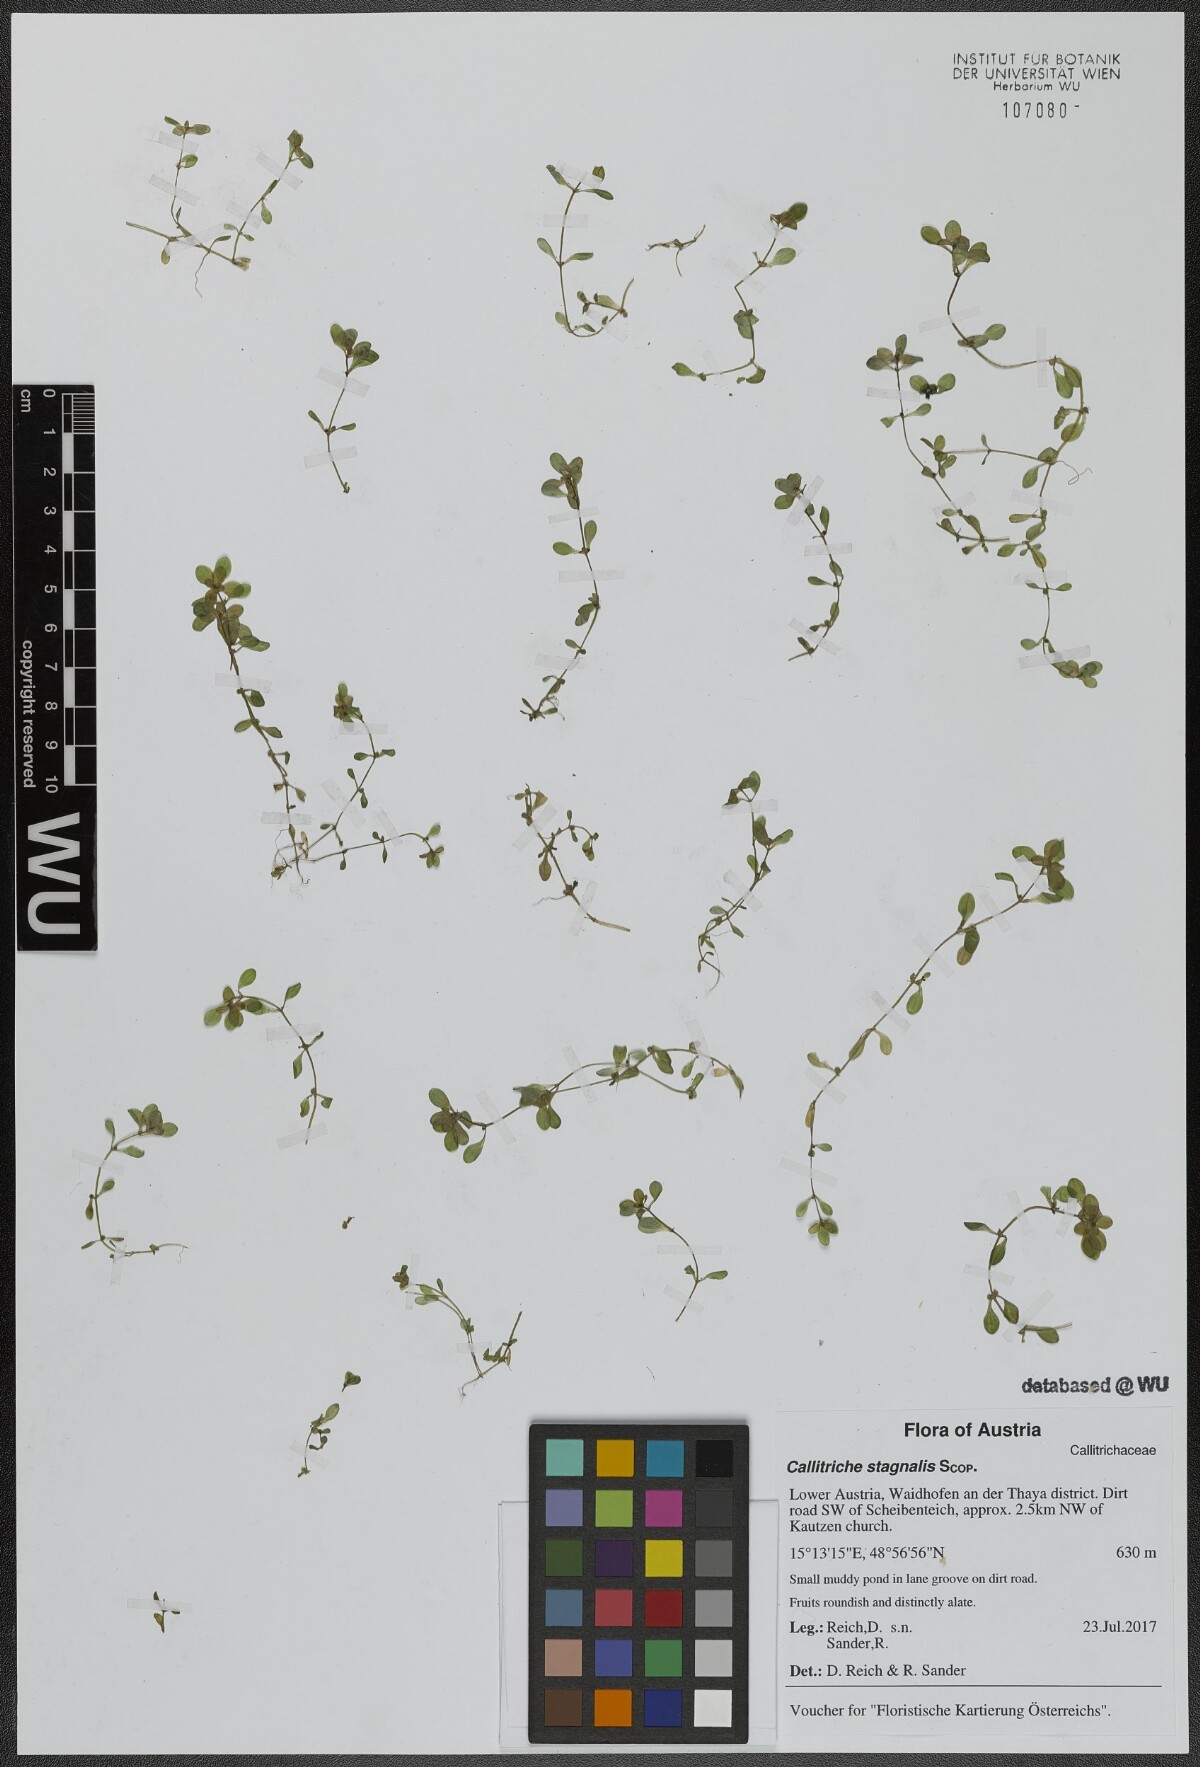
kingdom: Plantae
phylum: Tracheophyta
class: Magnoliopsida
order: Lamiales
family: Plantaginaceae
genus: Callitriche
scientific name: Callitriche stagnalis
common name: Common water-starwort
